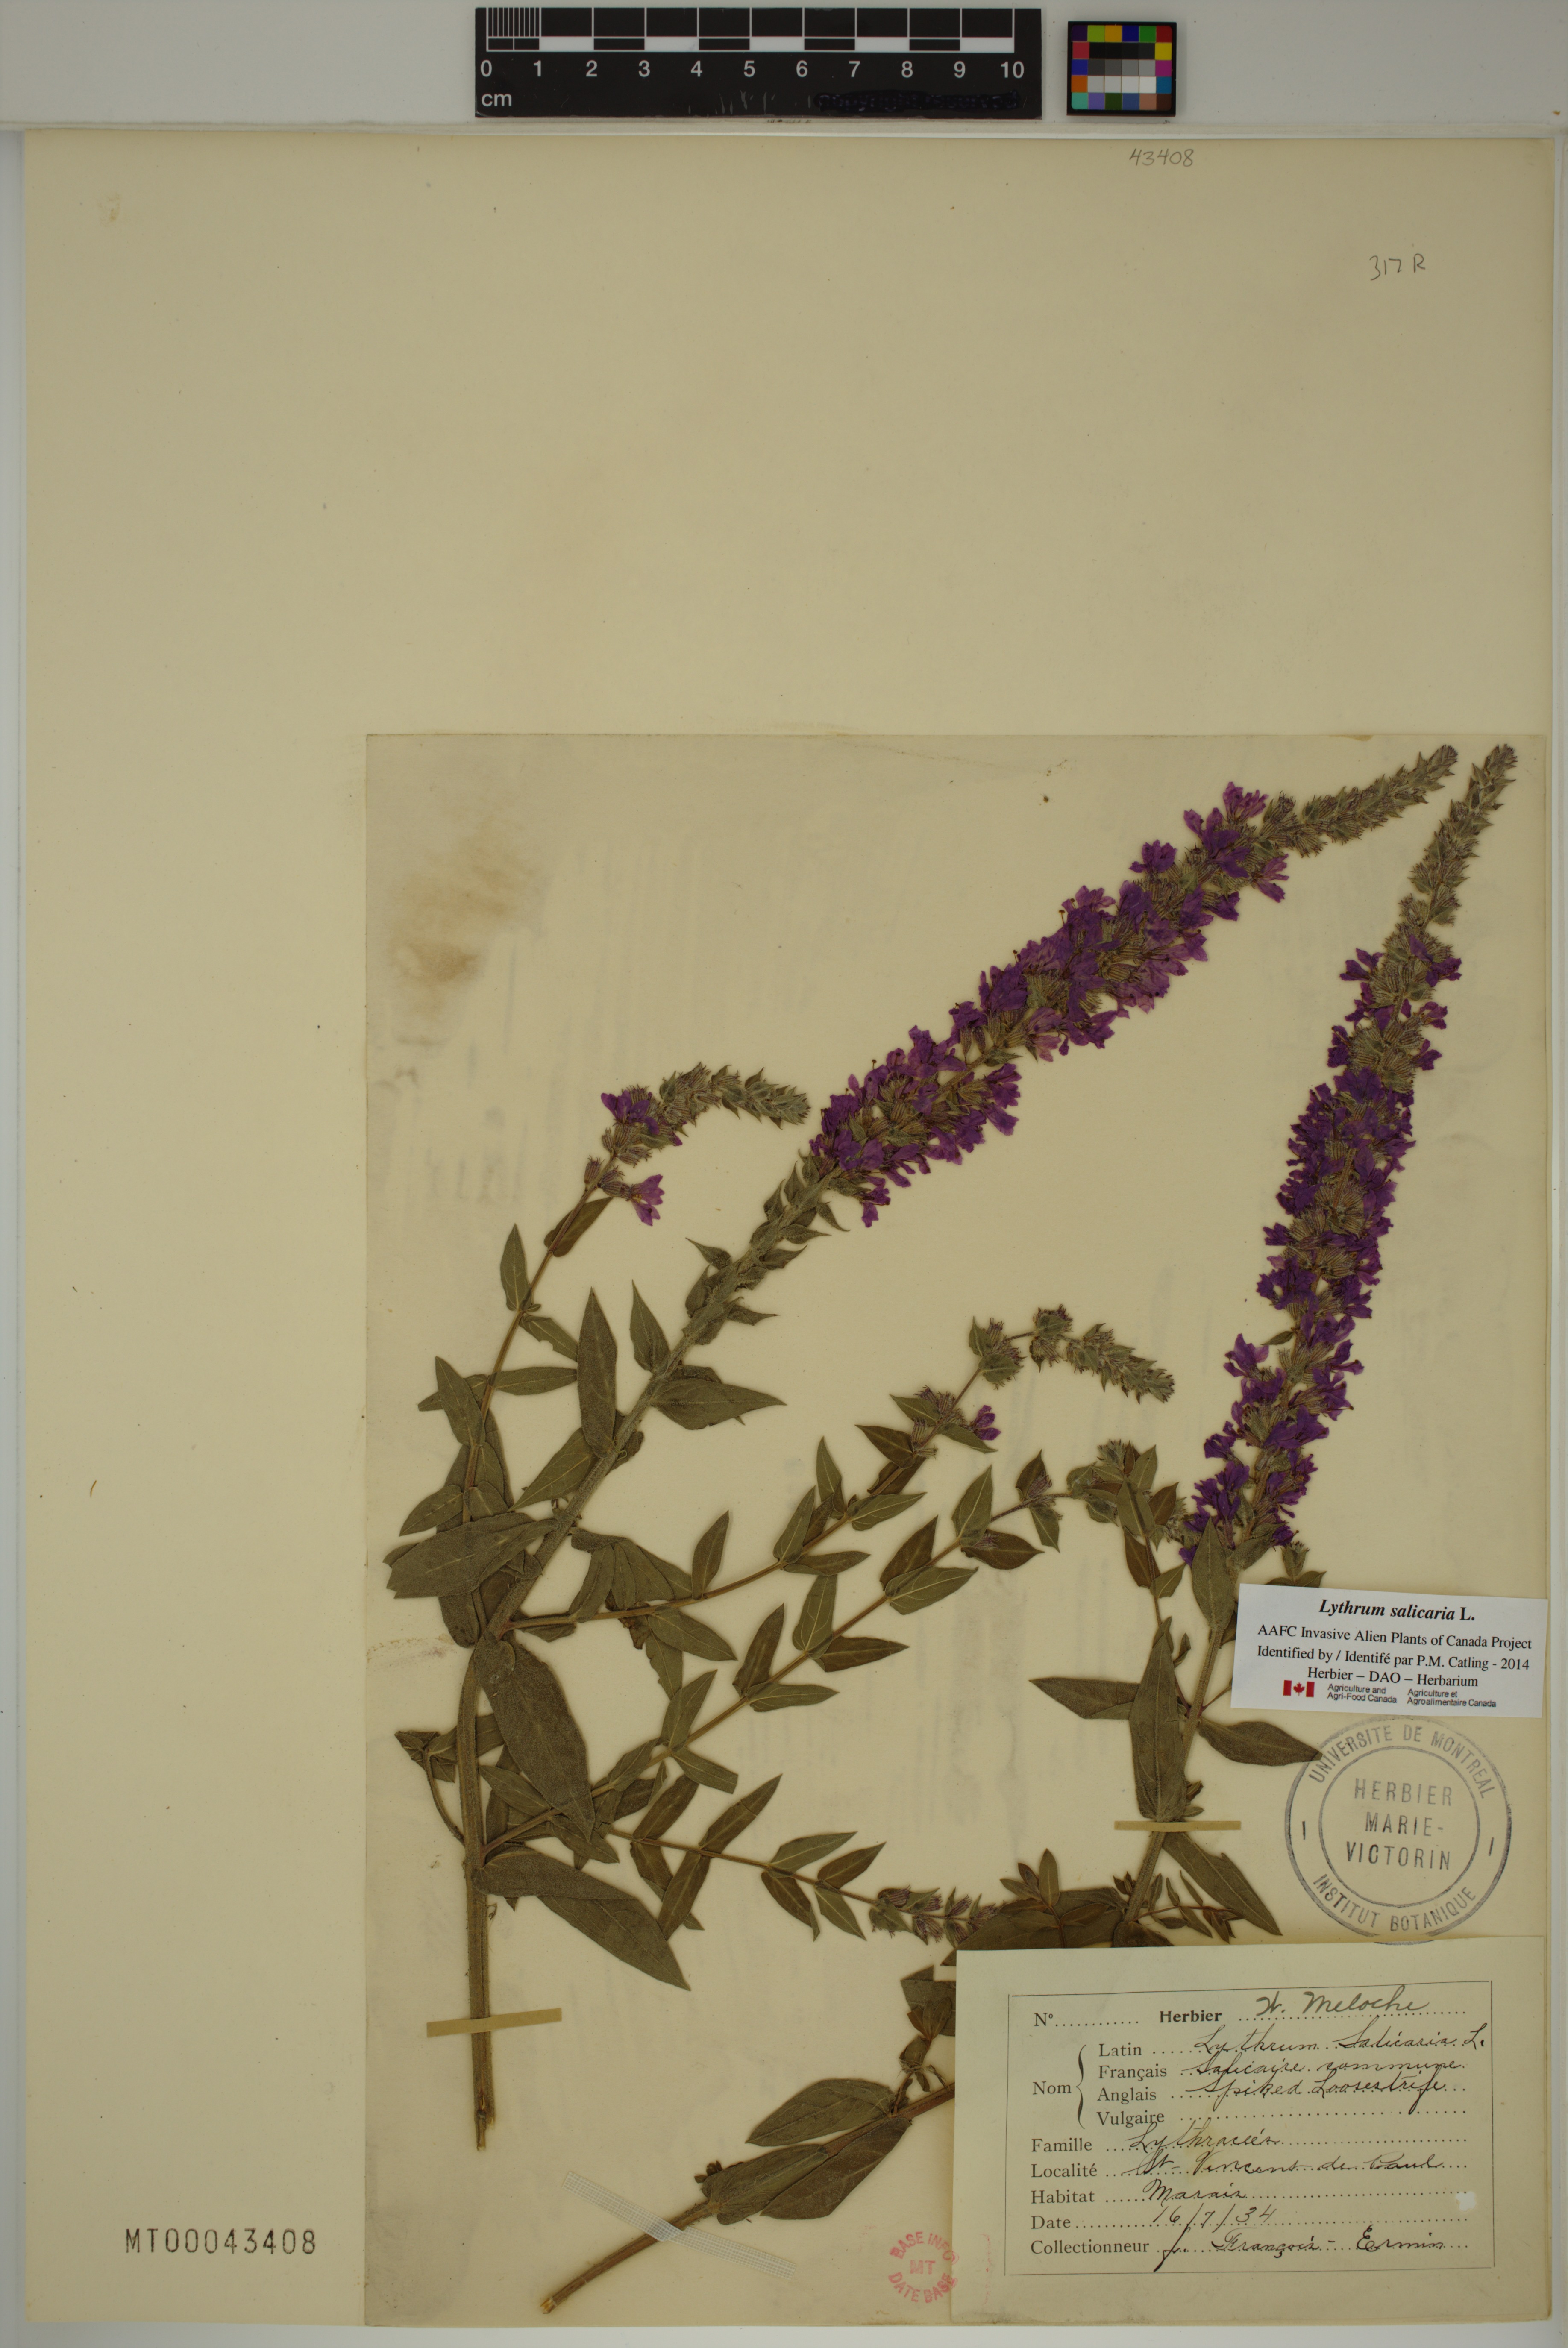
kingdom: Plantae
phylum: Tracheophyta
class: Magnoliopsida
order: Myrtales
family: Lythraceae
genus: Lythrum
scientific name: Lythrum salicaria
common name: Purple loosestrife
